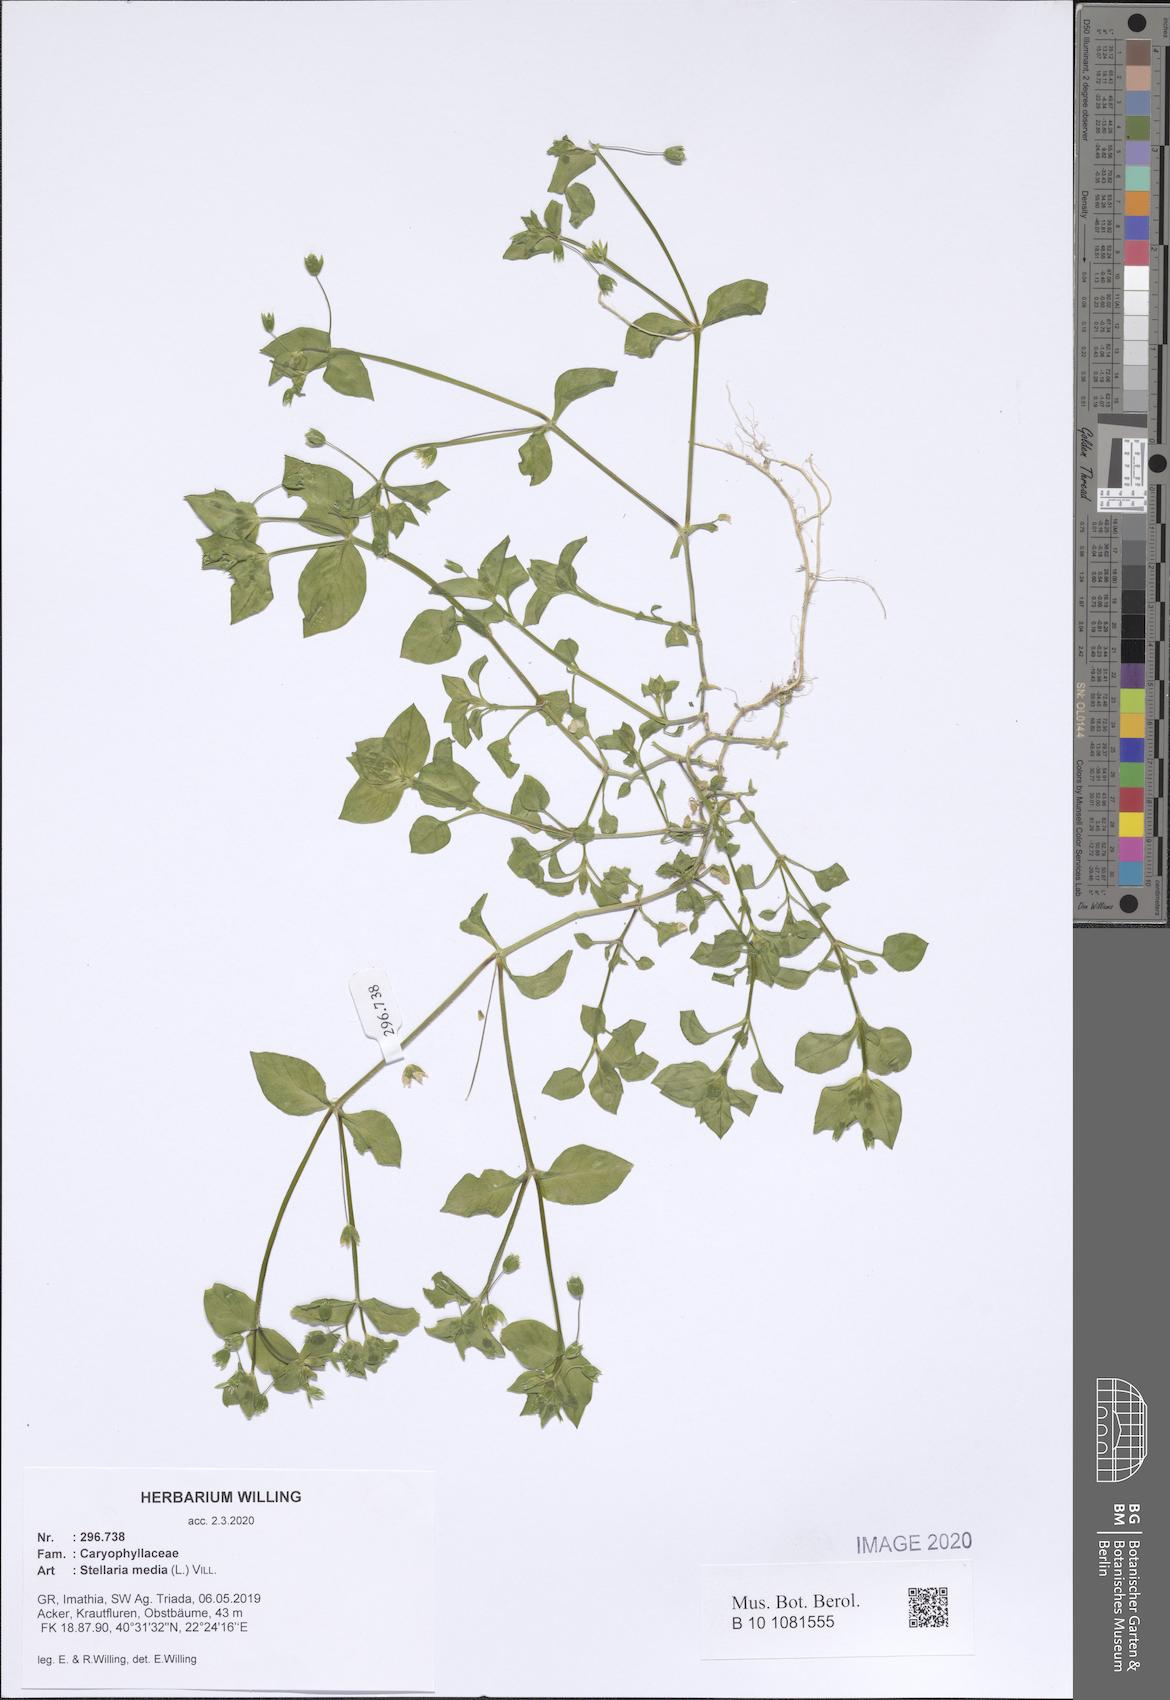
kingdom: Plantae
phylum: Tracheophyta
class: Magnoliopsida
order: Caryophyllales
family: Caryophyllaceae
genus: Stellaria
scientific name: Stellaria media
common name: Common chickweed
